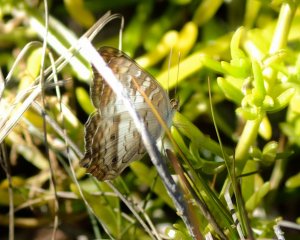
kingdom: Animalia
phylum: Arthropoda
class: Insecta
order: Lepidoptera
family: Nymphalidae
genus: Anartia
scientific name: Anartia jatrophae
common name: White Peacock
